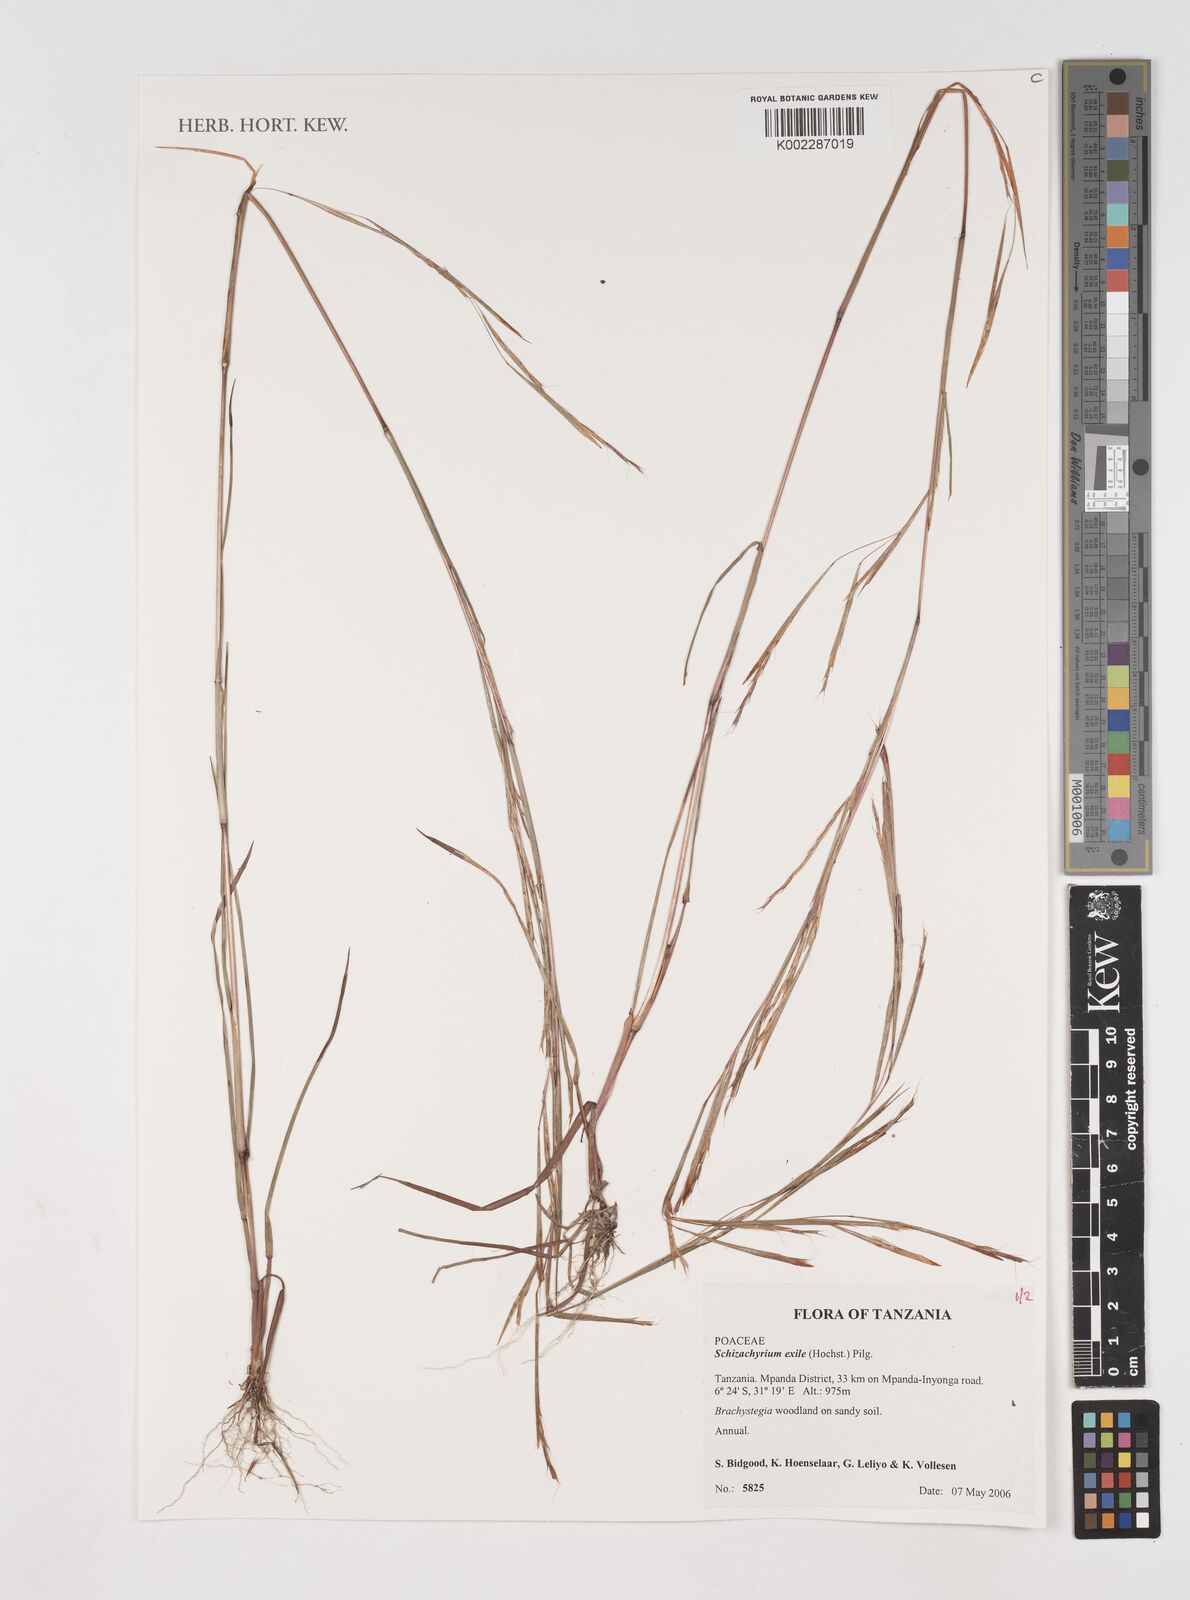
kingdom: Plantae
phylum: Tracheophyta
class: Liliopsida
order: Poales
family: Poaceae
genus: Schizachyrium
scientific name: Schizachyrium exile
